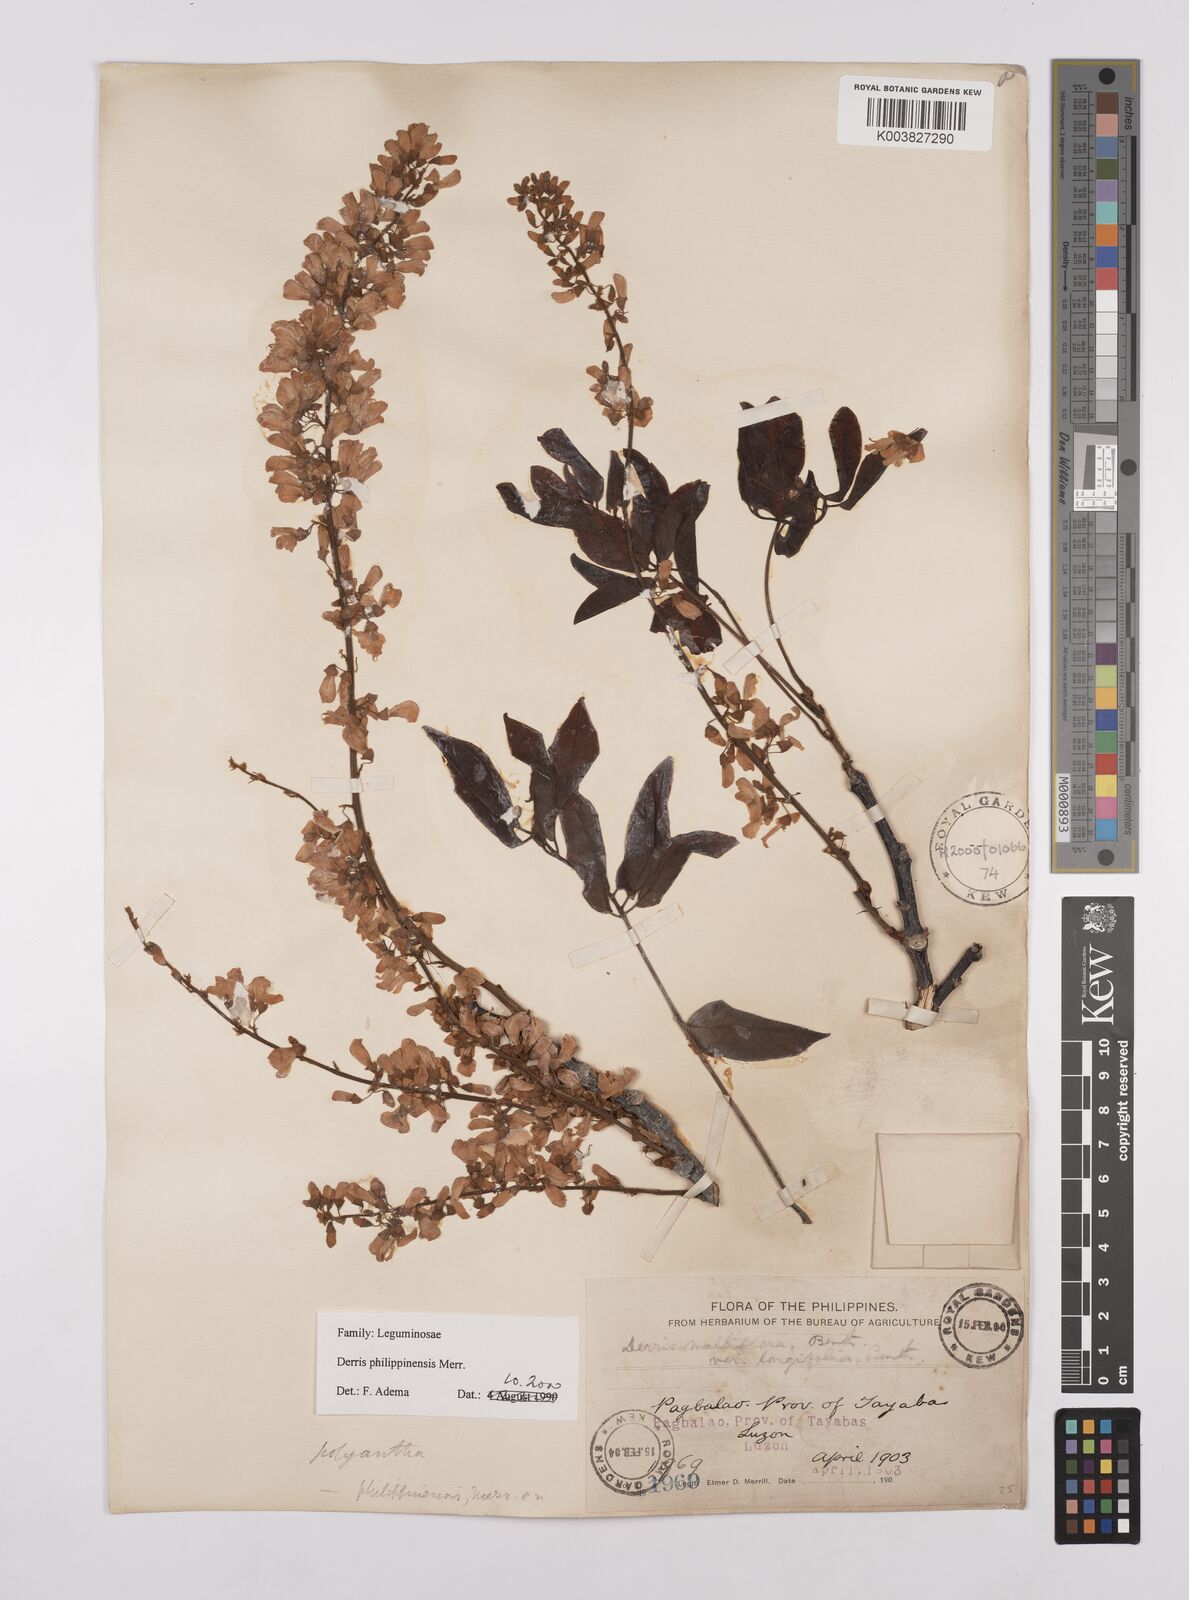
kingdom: Plantae
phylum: Tracheophyta
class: Magnoliopsida
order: Fabales
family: Fabaceae
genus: Brachypterum
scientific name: Brachypterum philippinense
